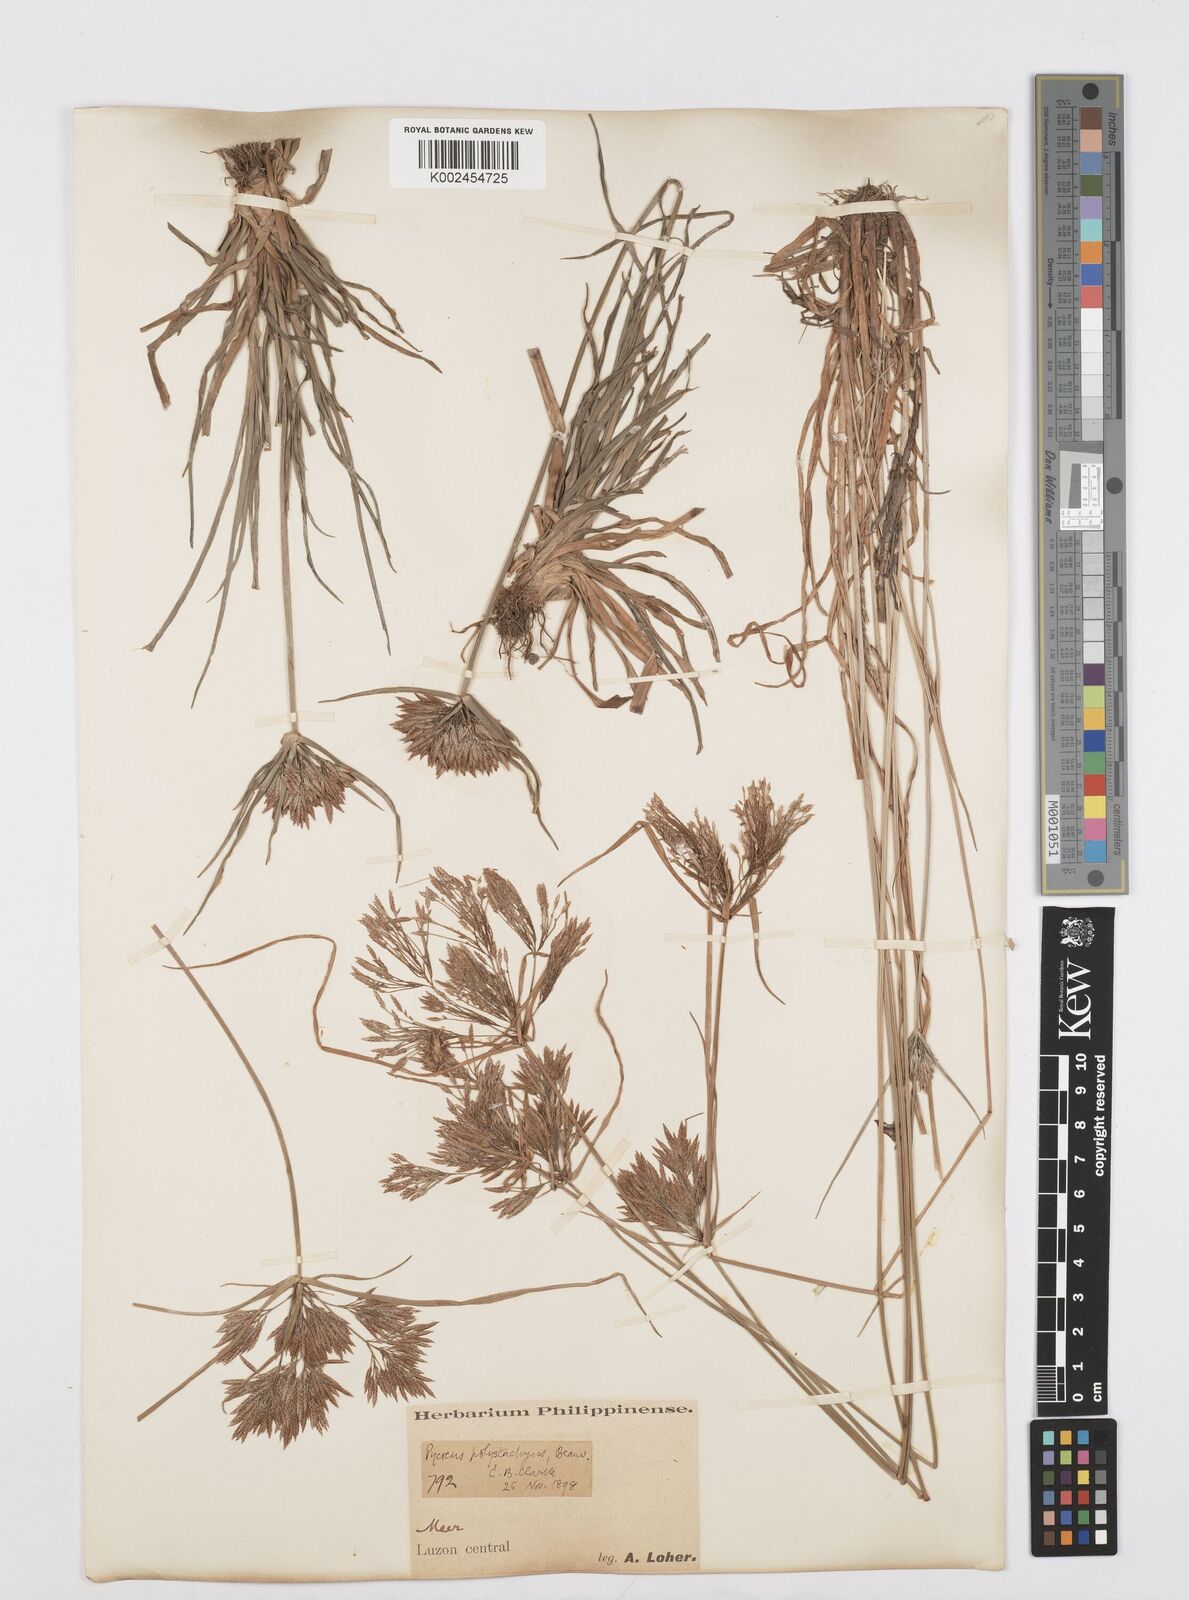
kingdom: Plantae
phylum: Tracheophyta
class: Liliopsida
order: Poales
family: Cyperaceae
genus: Cyperus
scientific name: Cyperus polystachyos
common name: Bunchy flat sedge
